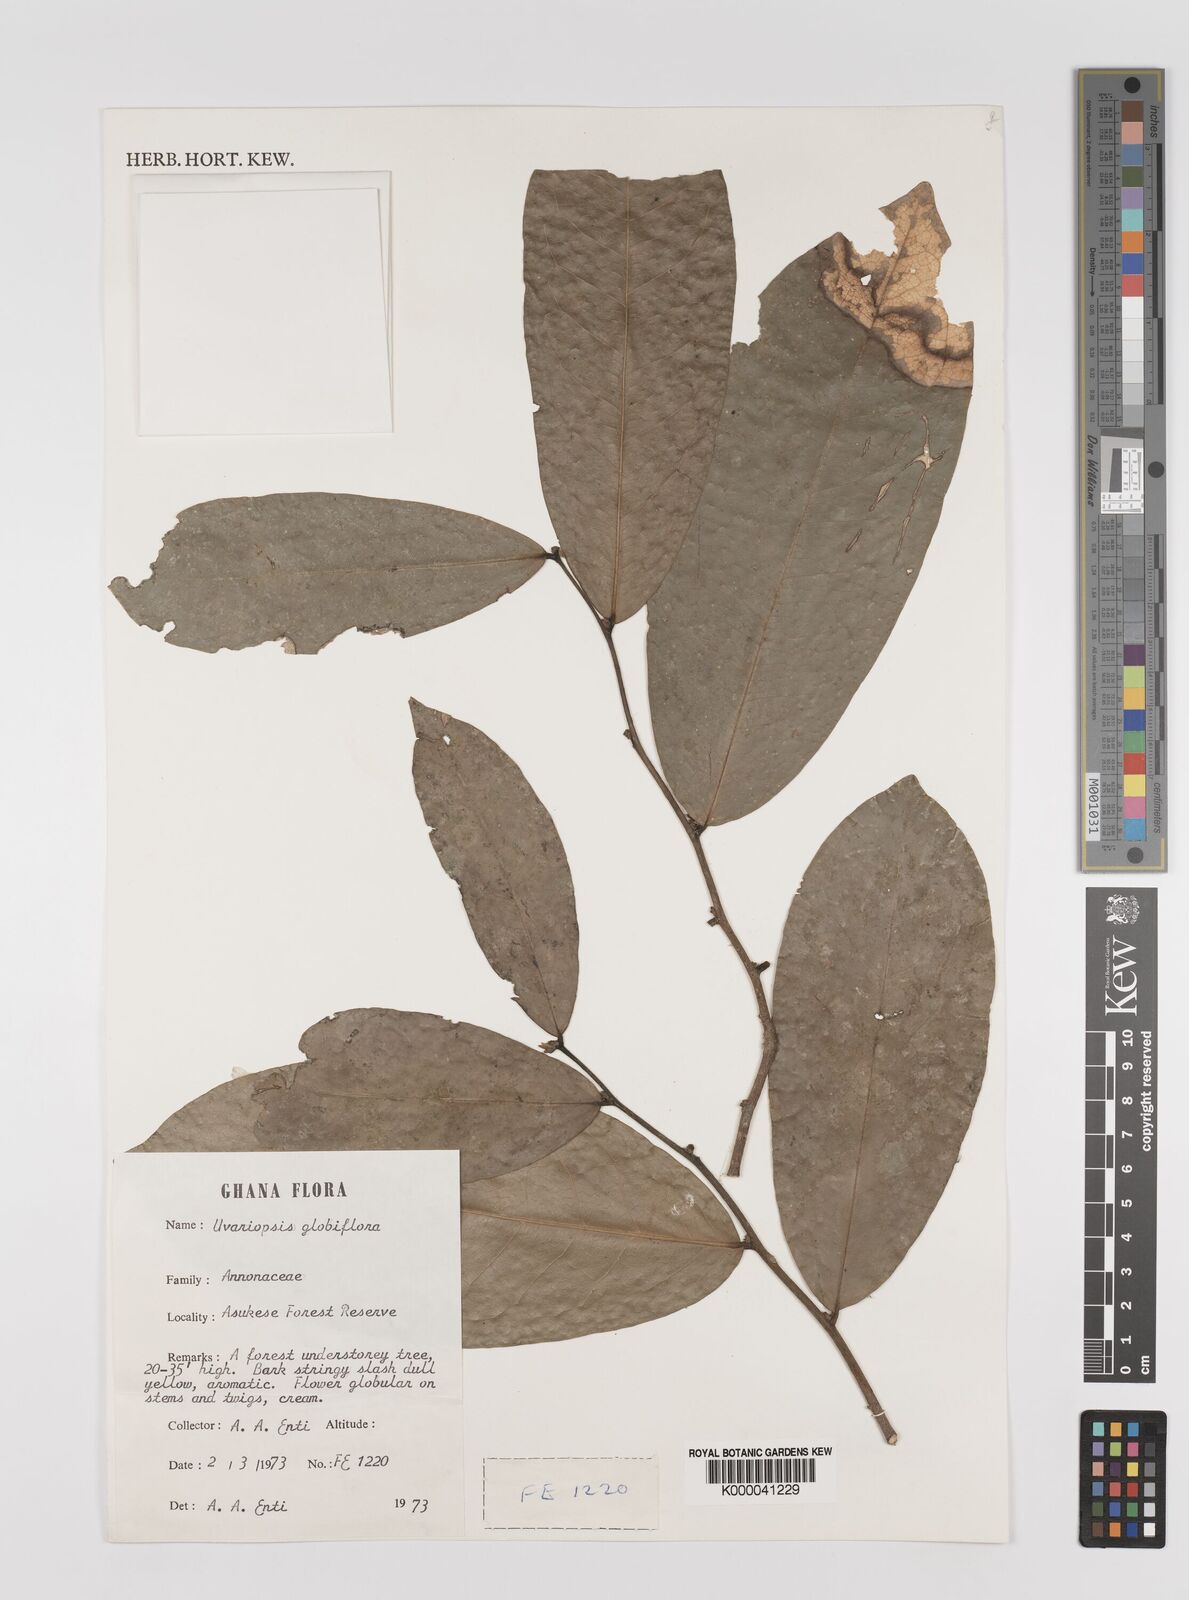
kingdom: Plantae
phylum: Tracheophyta
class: Magnoliopsida
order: Magnoliales
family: Annonaceae
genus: Uvaria
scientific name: Uvaria
